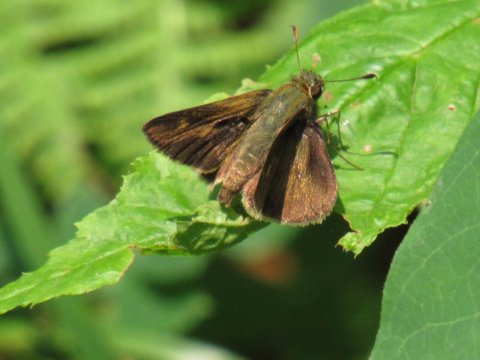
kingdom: Animalia
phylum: Arthropoda
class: Insecta
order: Lepidoptera
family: Hesperiidae
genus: Polites
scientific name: Polites egeremet
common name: Northern Broken-Dash
